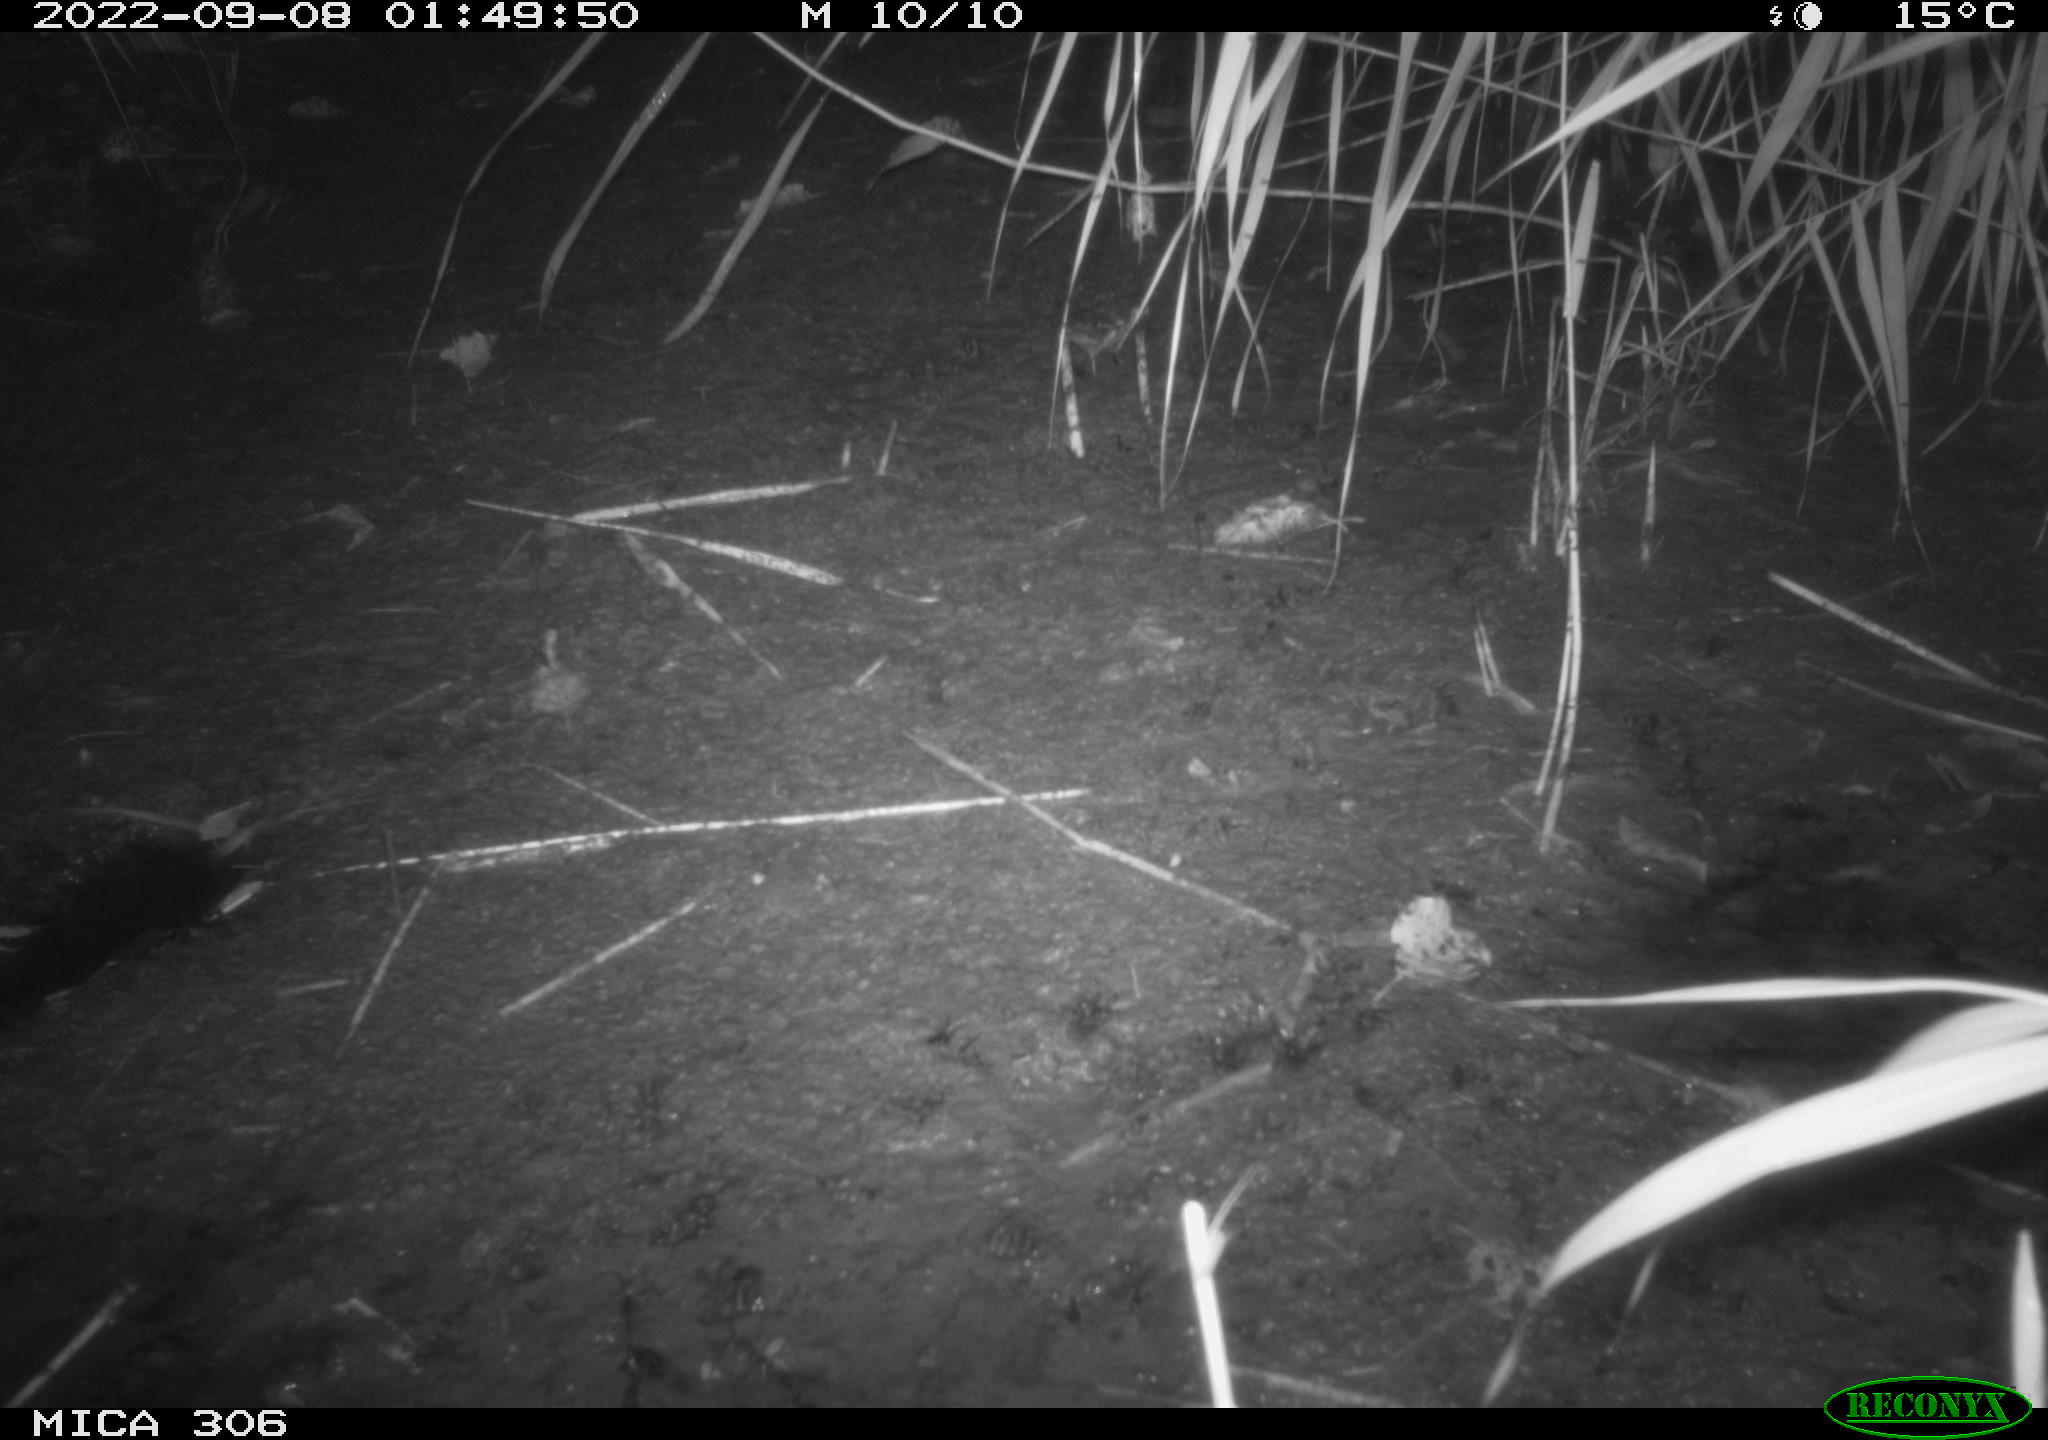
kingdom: Animalia
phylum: Chordata
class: Mammalia
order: Rodentia
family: Muridae
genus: Rattus
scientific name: Rattus norvegicus
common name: Brown rat
